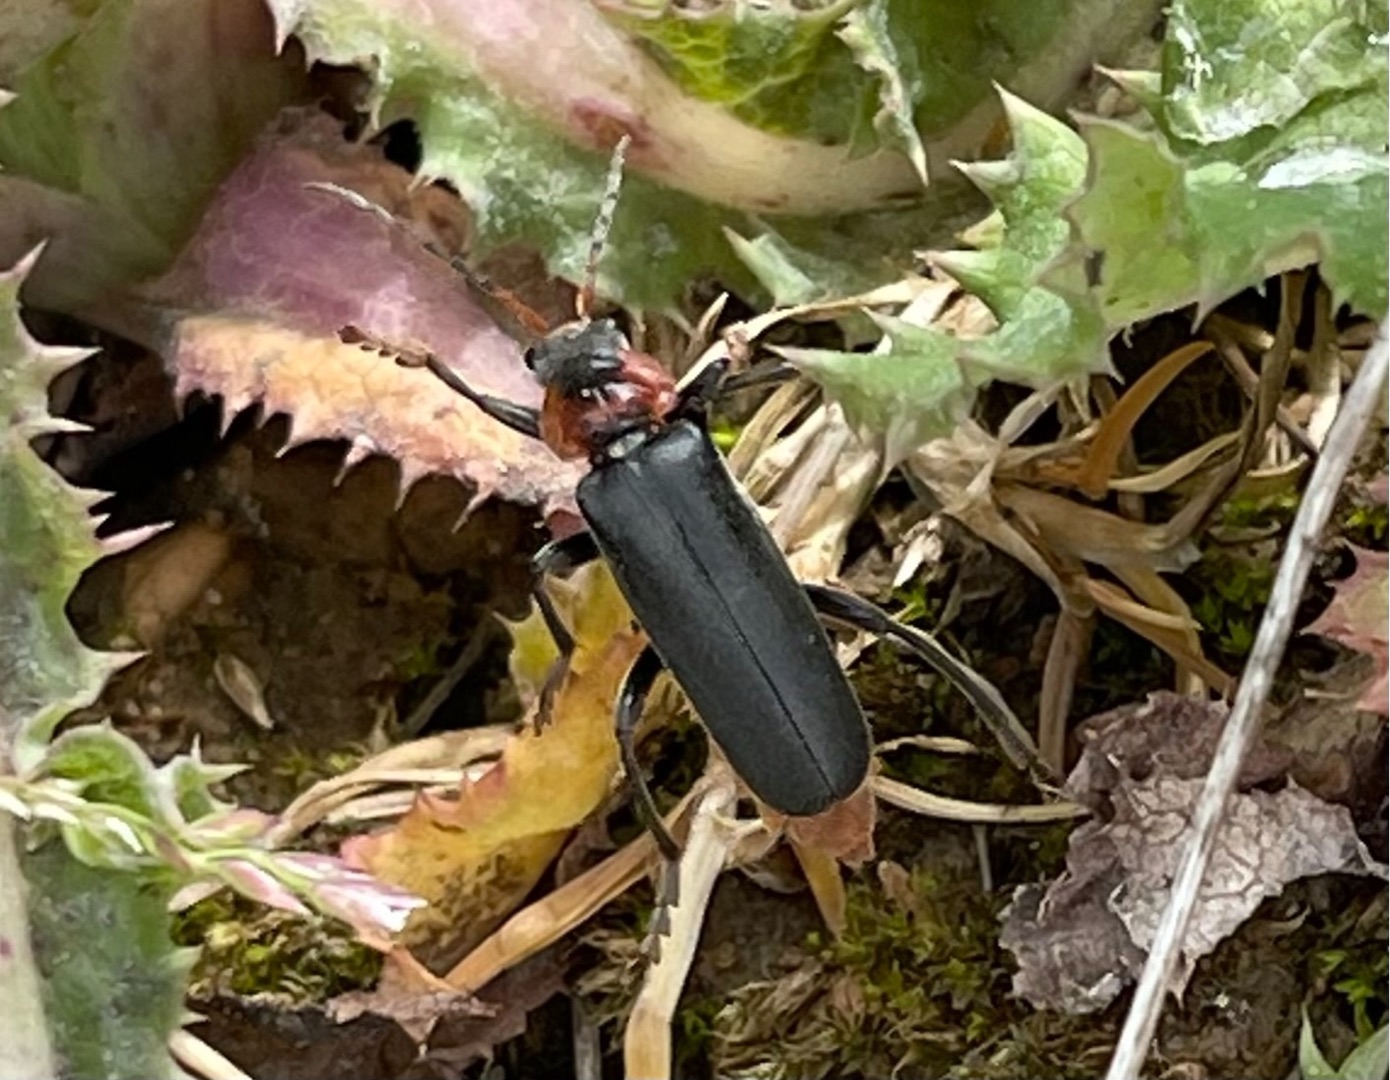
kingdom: Animalia
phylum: Arthropoda
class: Insecta
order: Coleoptera
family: Cantharidae
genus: Cantharis
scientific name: Cantharis fusca
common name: Stor blødvinge
